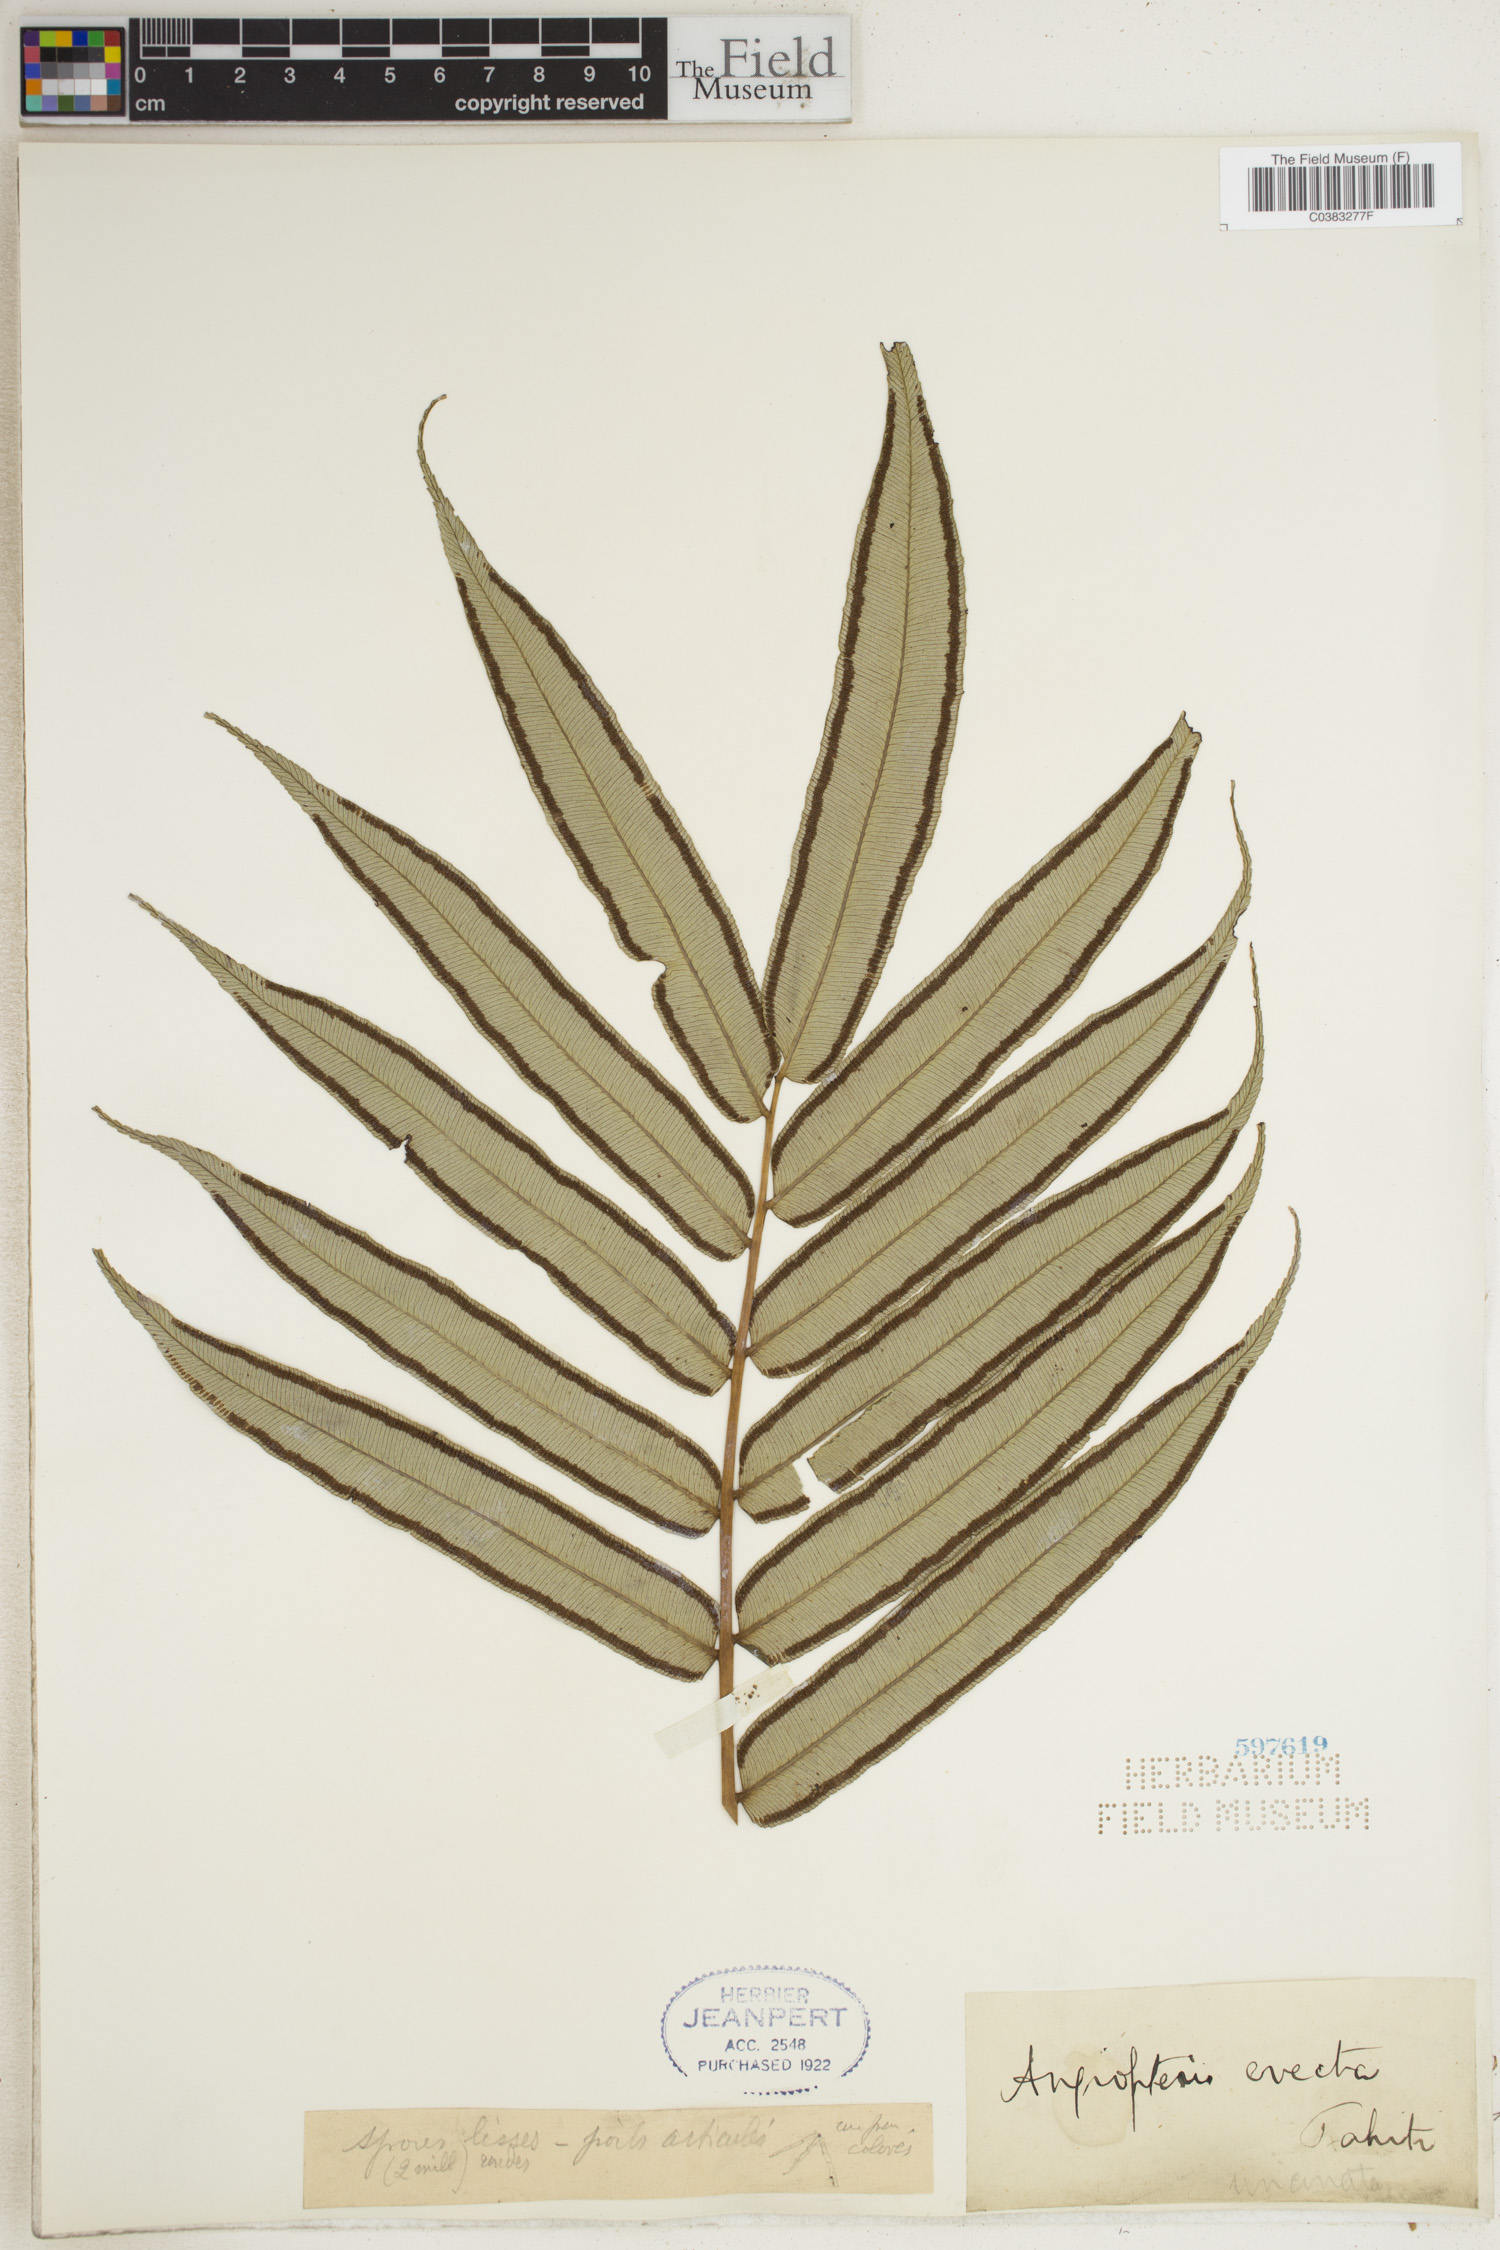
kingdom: Plantae
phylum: Tracheophyta
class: Polypodiopsida
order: Marattiales
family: Marattiaceae
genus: Angiopteris
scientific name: Angiopteris evecta
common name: Mule's-foot fern
